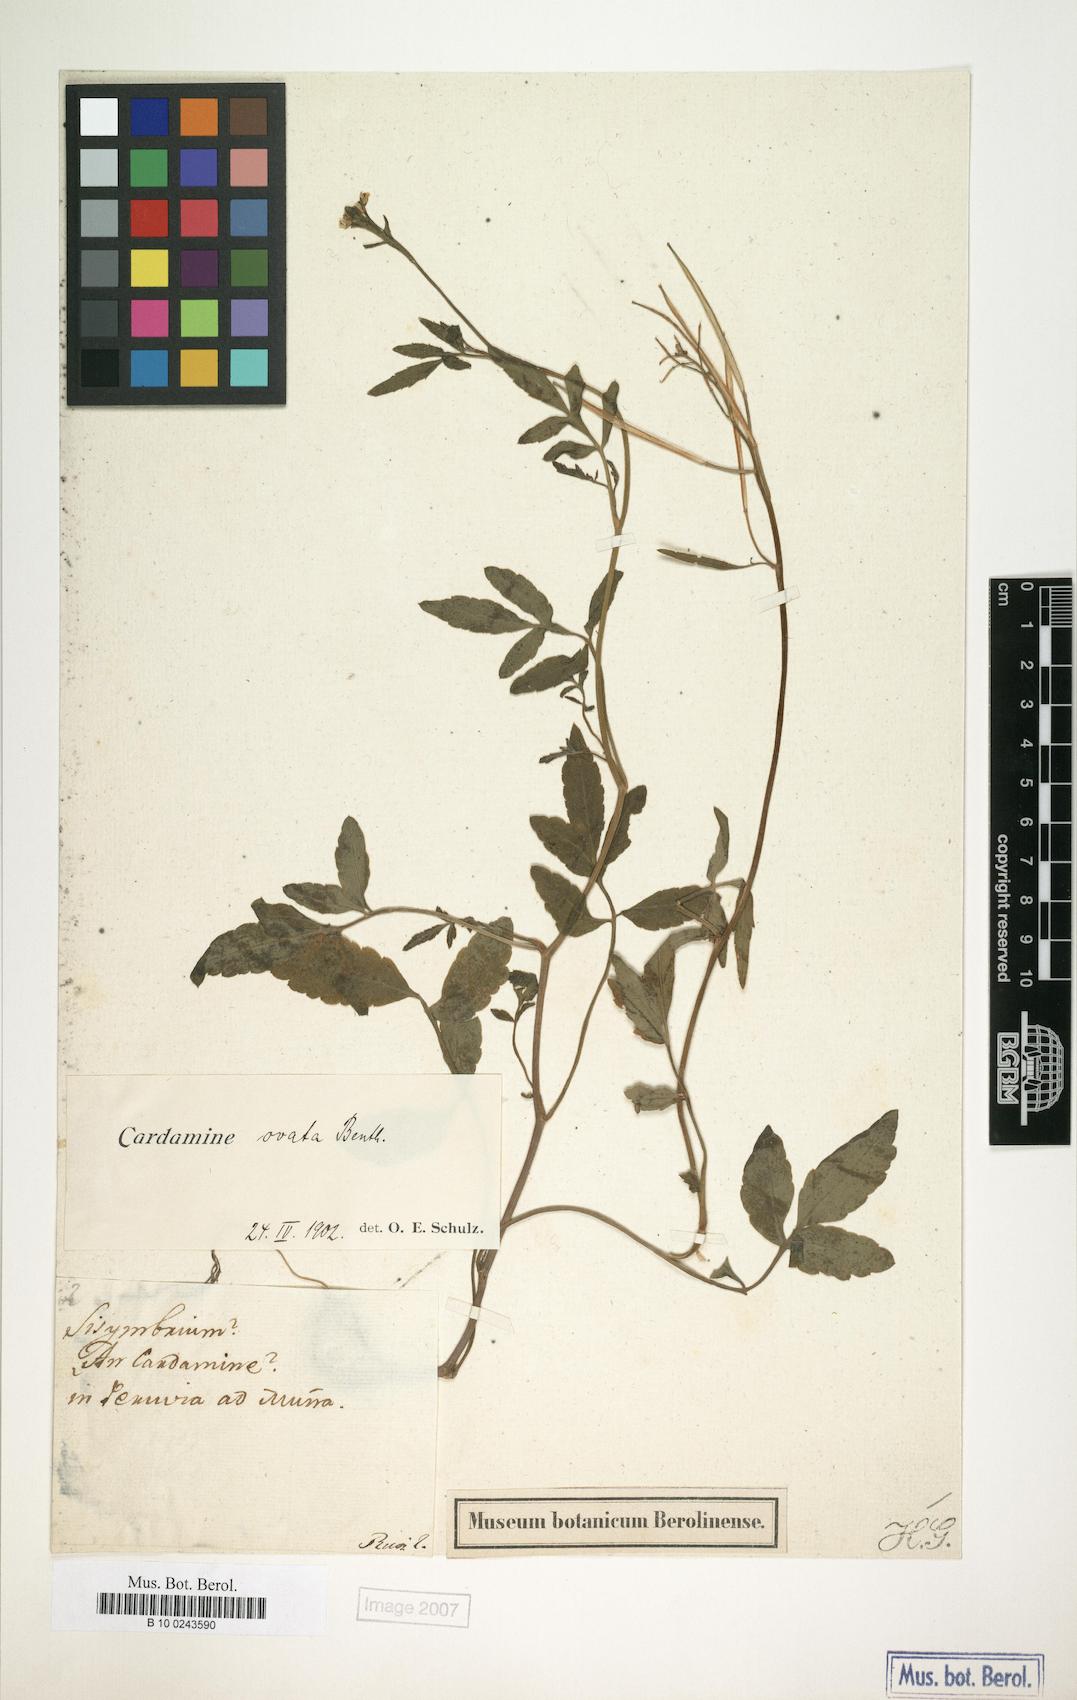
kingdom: Plantae
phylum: Tracheophyta
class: Magnoliopsida
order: Brassicales
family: Brassicaceae
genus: Cardamine
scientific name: Cardamine ovata
